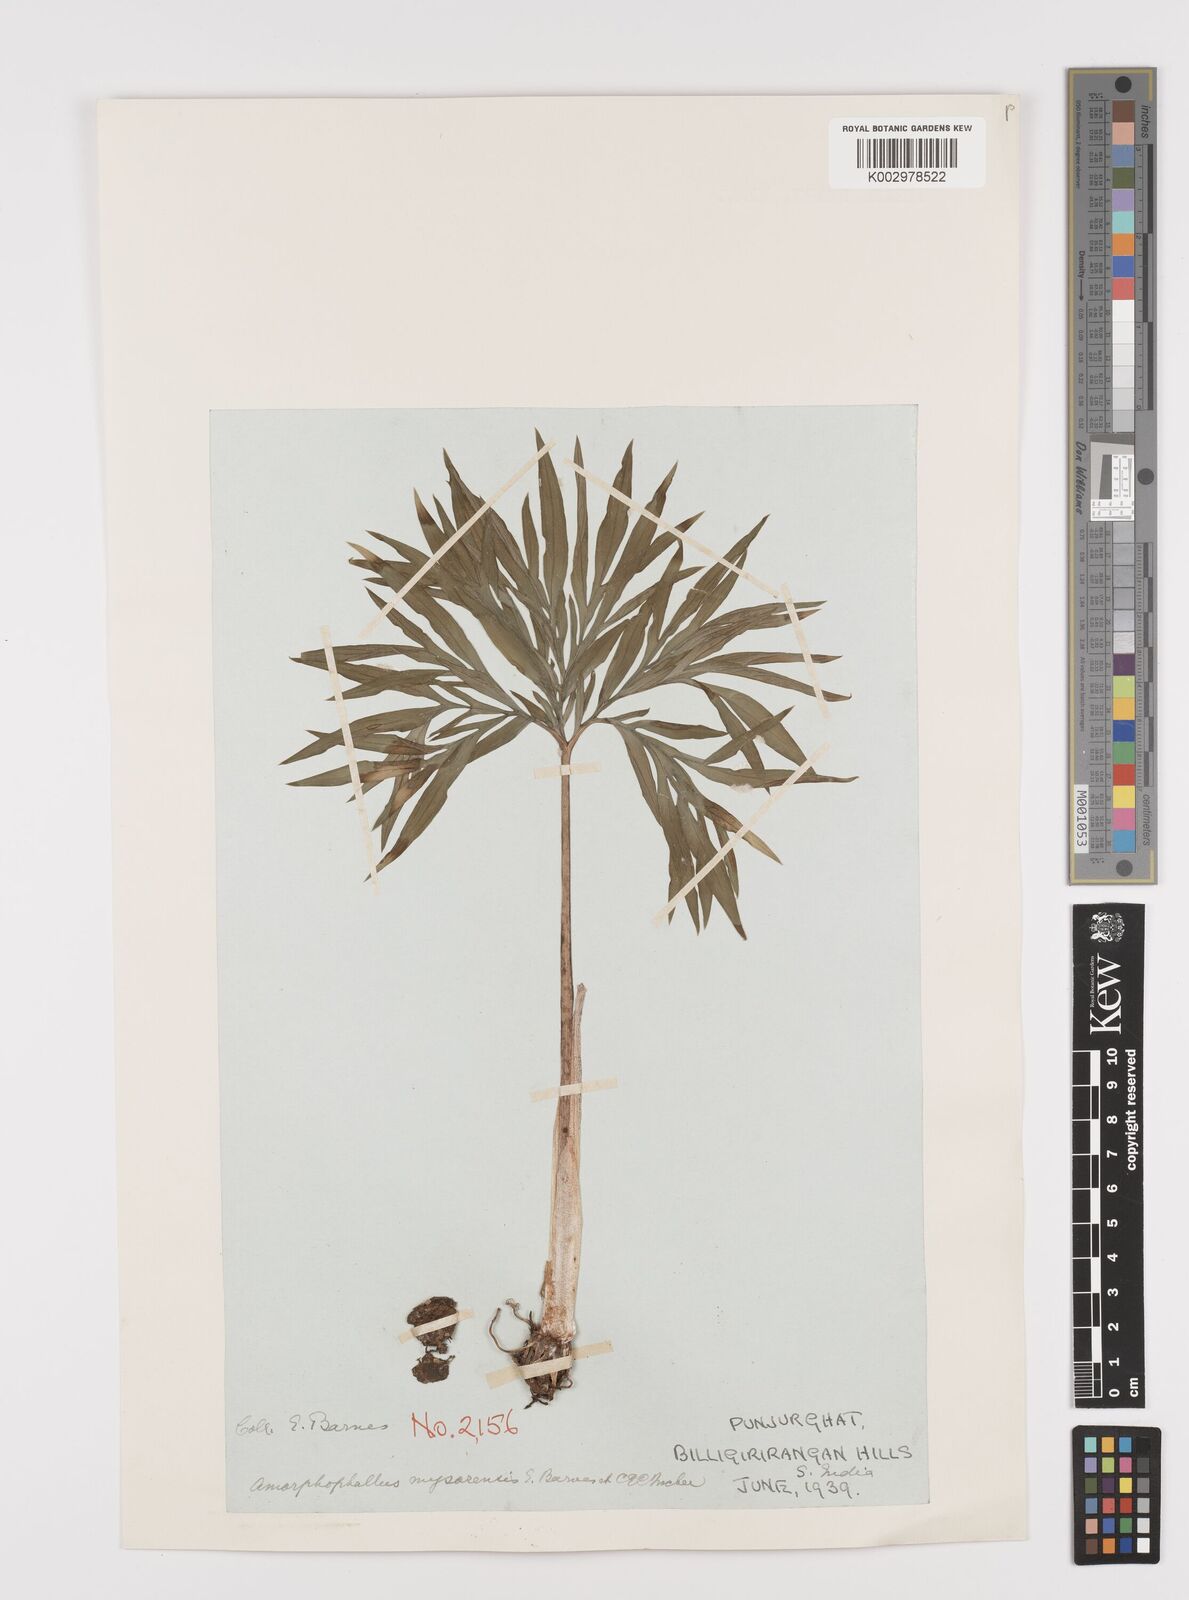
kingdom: Plantae
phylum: Tracheophyta
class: Liliopsida
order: Alismatales
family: Araceae
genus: Amorphophallus
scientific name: Amorphophallus mysorensis
